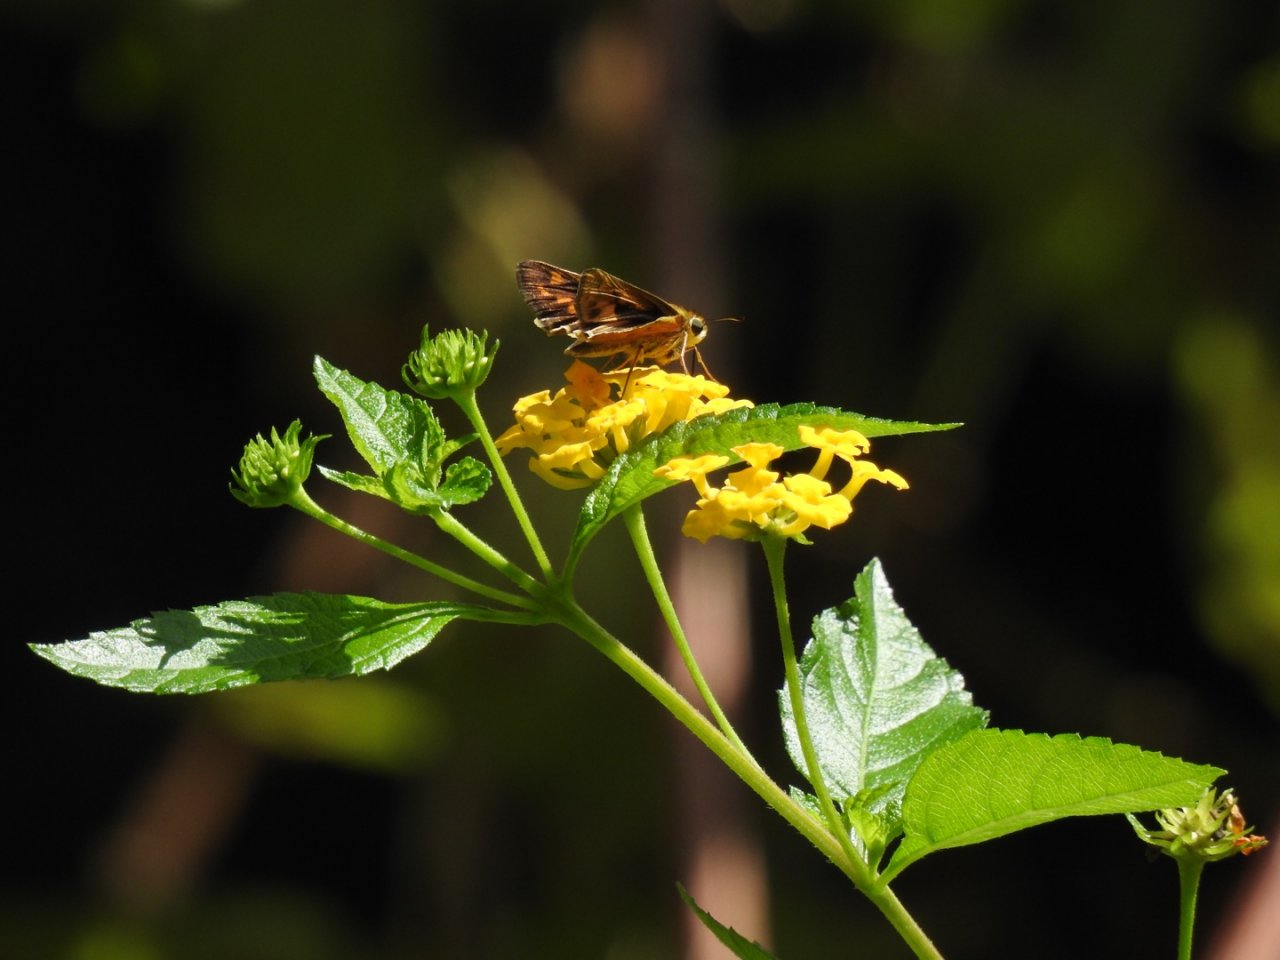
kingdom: Animalia
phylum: Arthropoda
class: Insecta
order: Lepidoptera
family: Hesperiidae
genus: Hylephila
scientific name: Hylephila phyleus
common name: Fiery Skipper
